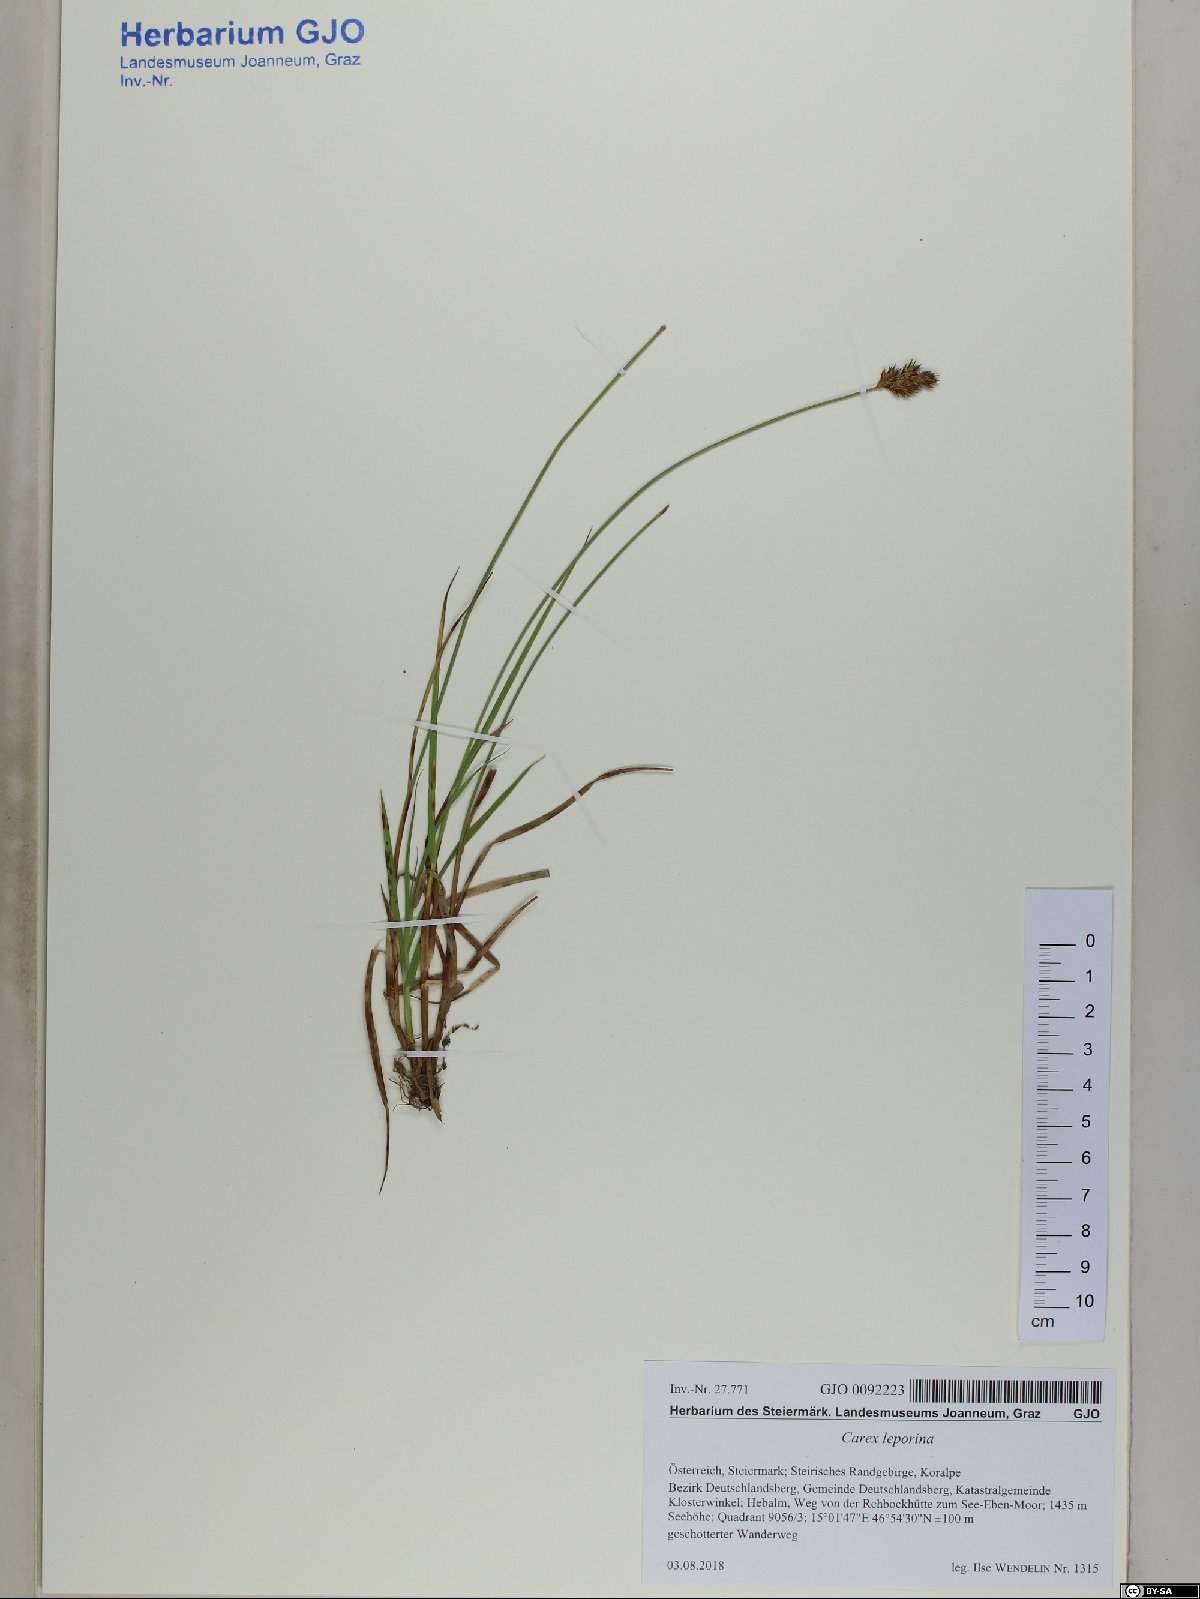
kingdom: Plantae
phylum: Tracheophyta
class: Liliopsida
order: Poales
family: Cyperaceae
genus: Carex
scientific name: Carex leporina
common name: Oval sedge
